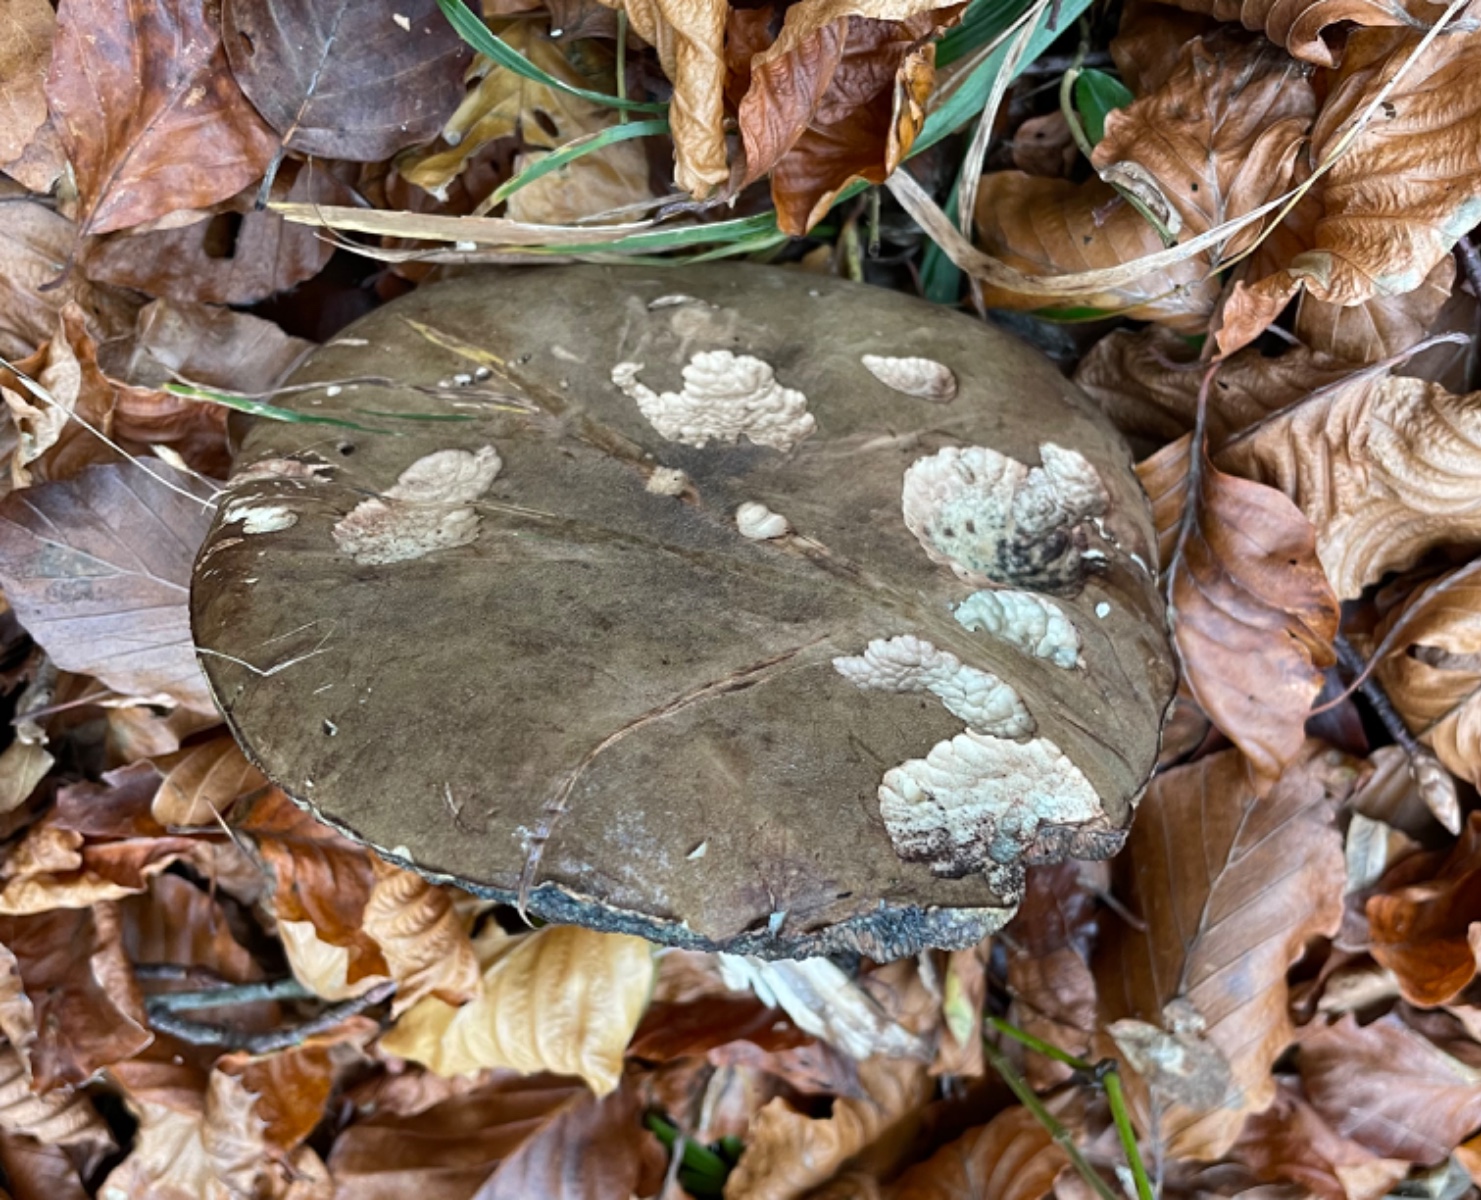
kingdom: Fungi
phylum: Basidiomycota
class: Agaricomycetes
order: Boletales
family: Boletaceae
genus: Porphyrellus
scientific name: Porphyrellus
